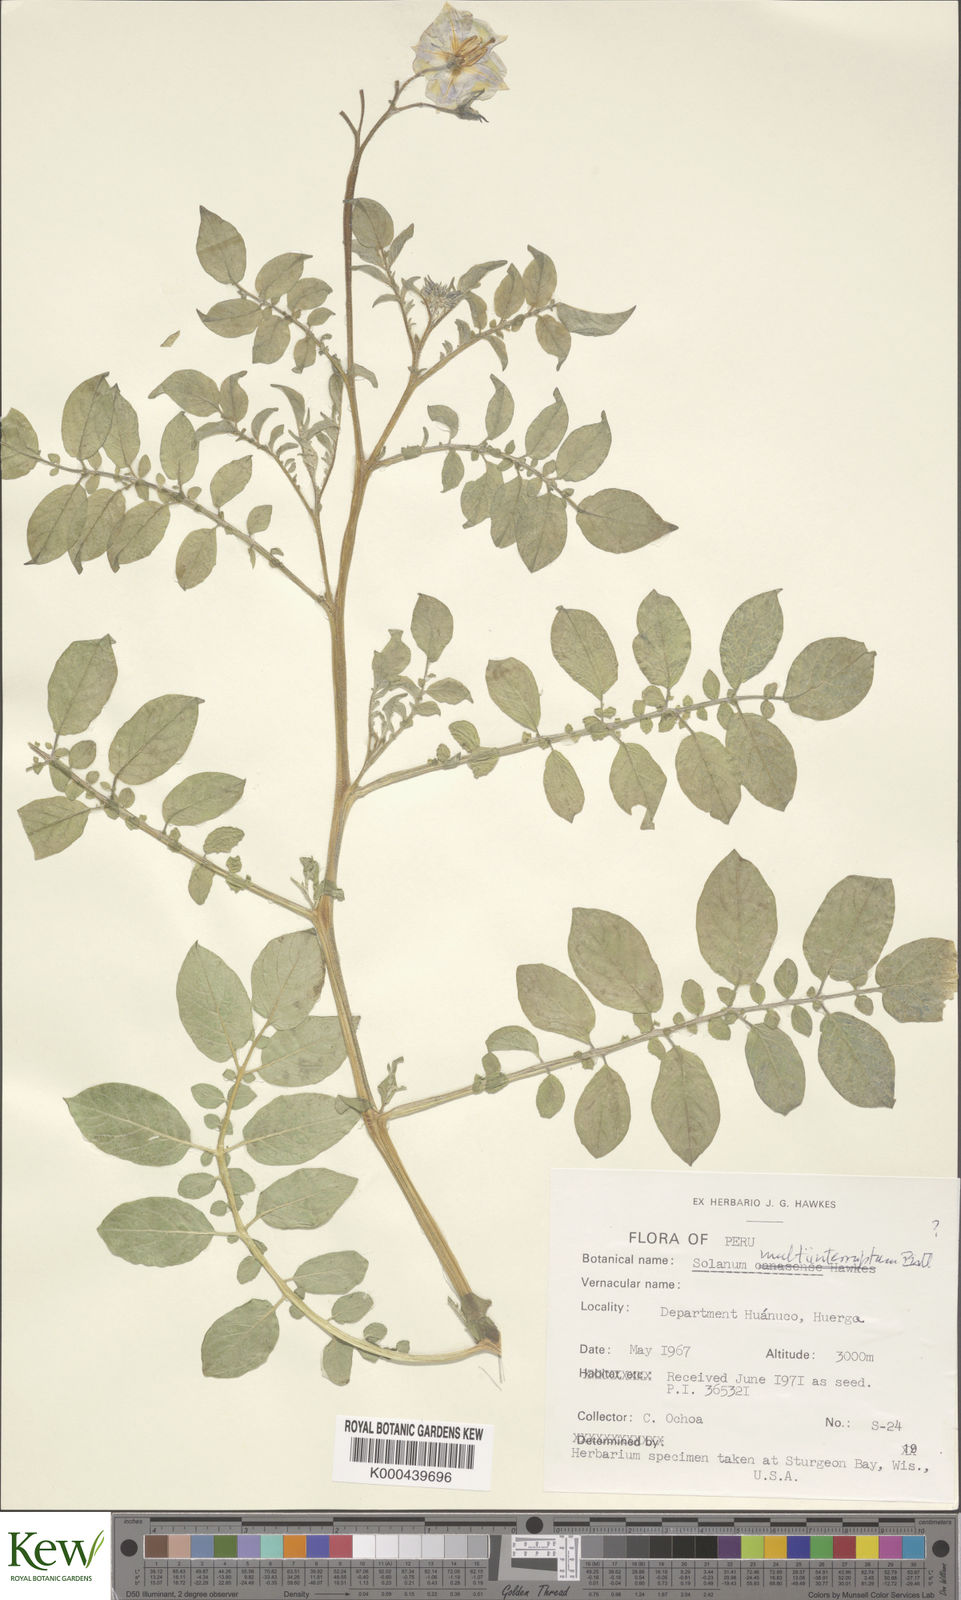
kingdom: Plantae
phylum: Tracheophyta
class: Magnoliopsida
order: Solanales
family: Solanaceae
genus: Solanum
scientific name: Solanum multiinterruptum
